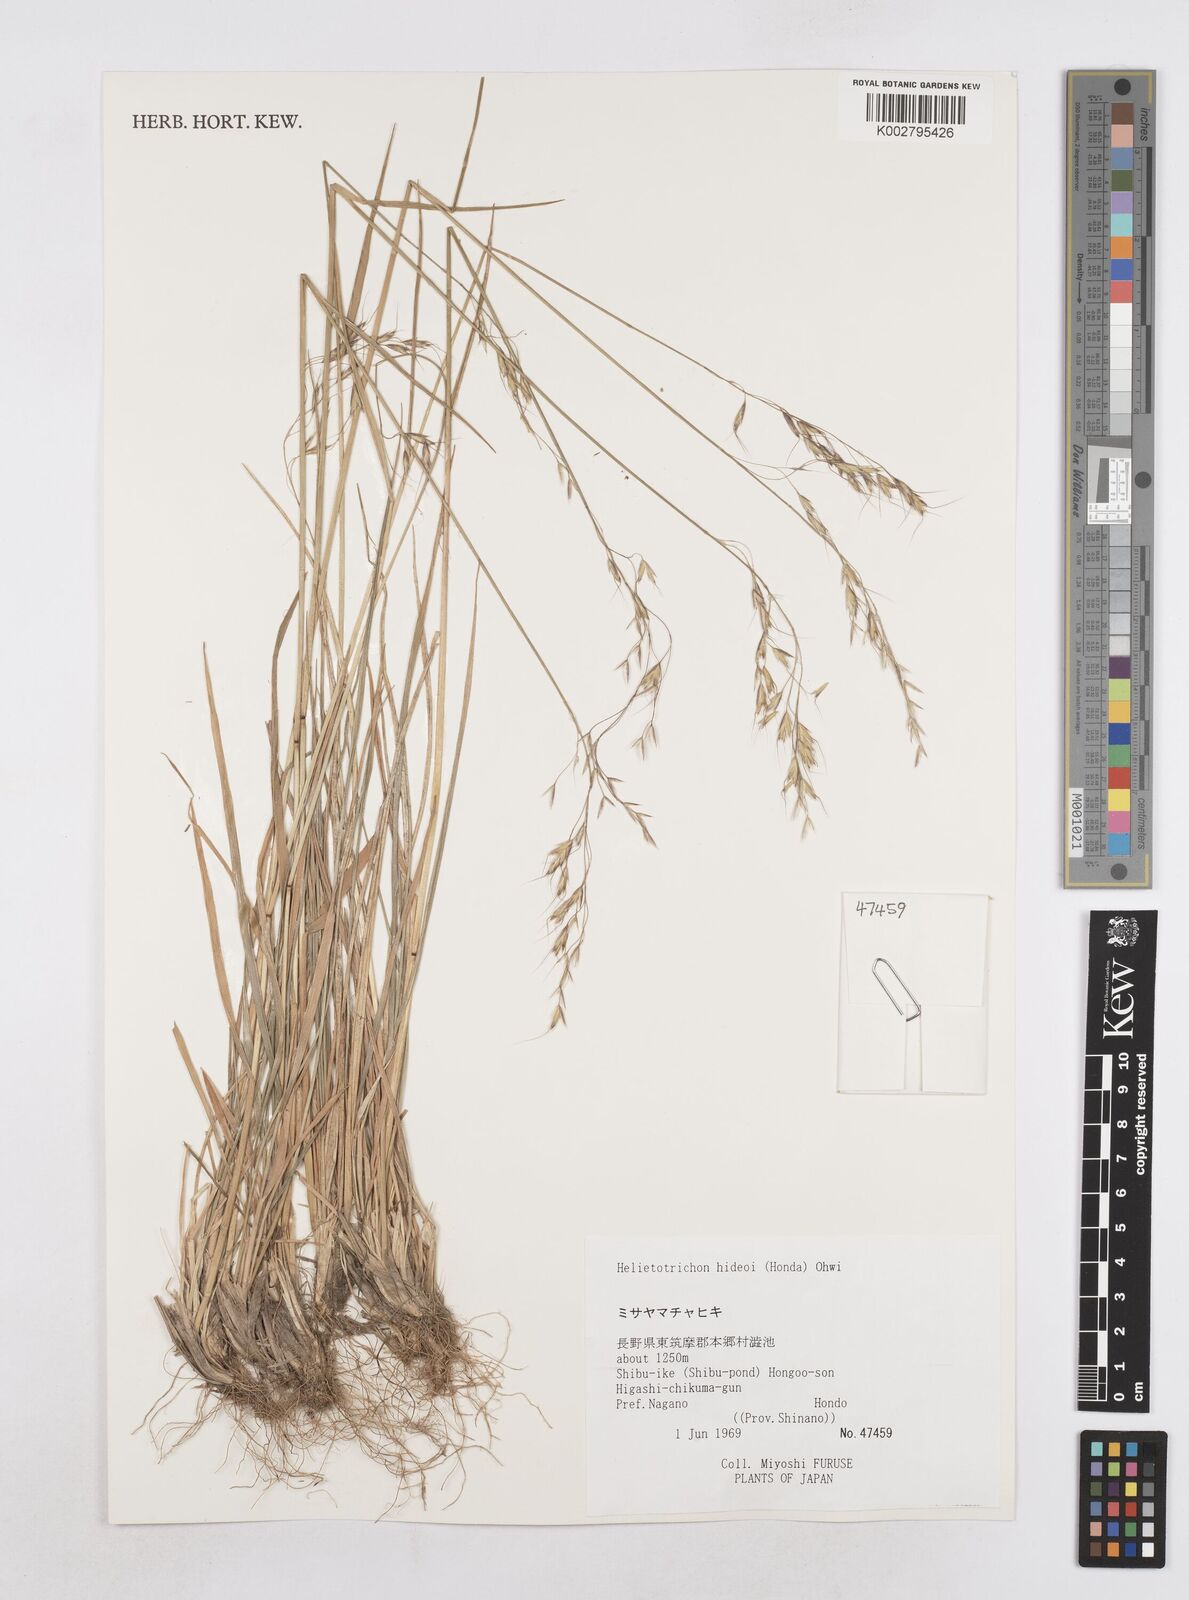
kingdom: Plantae
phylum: Tracheophyta
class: Liliopsida
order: Poales
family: Poaceae
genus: Helictotrichon
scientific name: Helictotrichon hideoi
